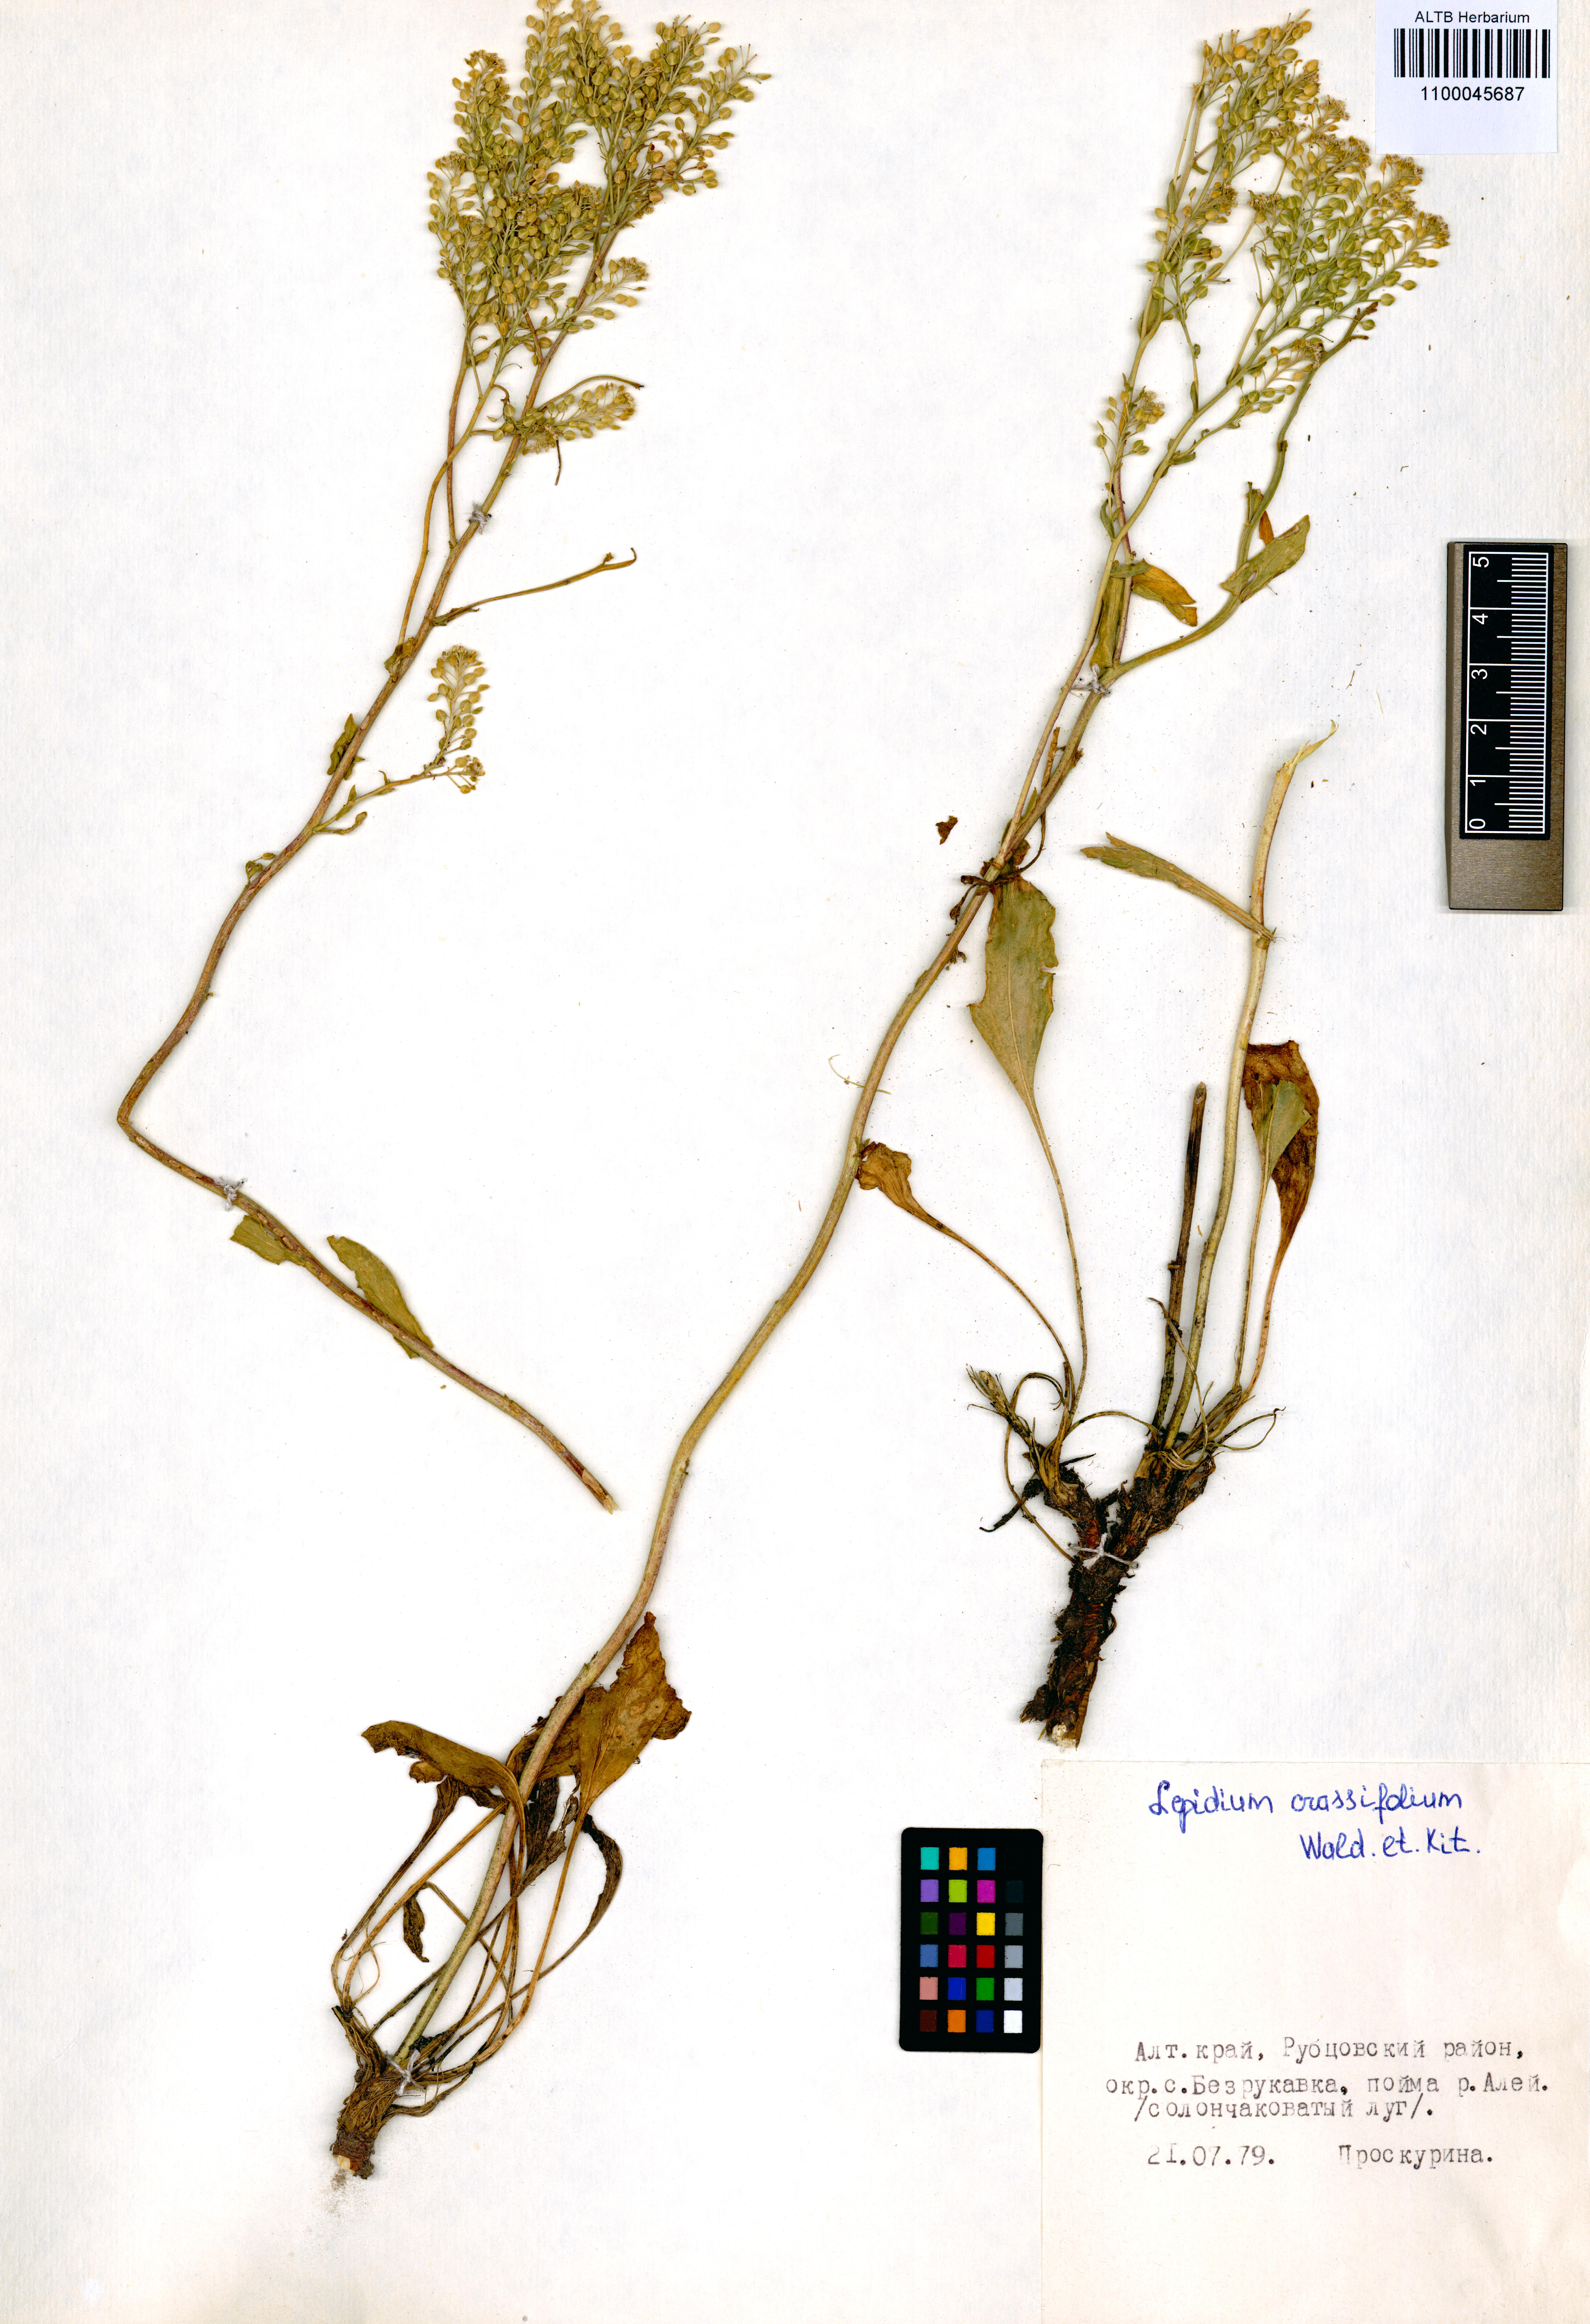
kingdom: Plantae
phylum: Tracheophyta
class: Magnoliopsida
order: Brassicales
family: Brassicaceae
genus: Lepidium
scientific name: Lepidium cartilagineum
